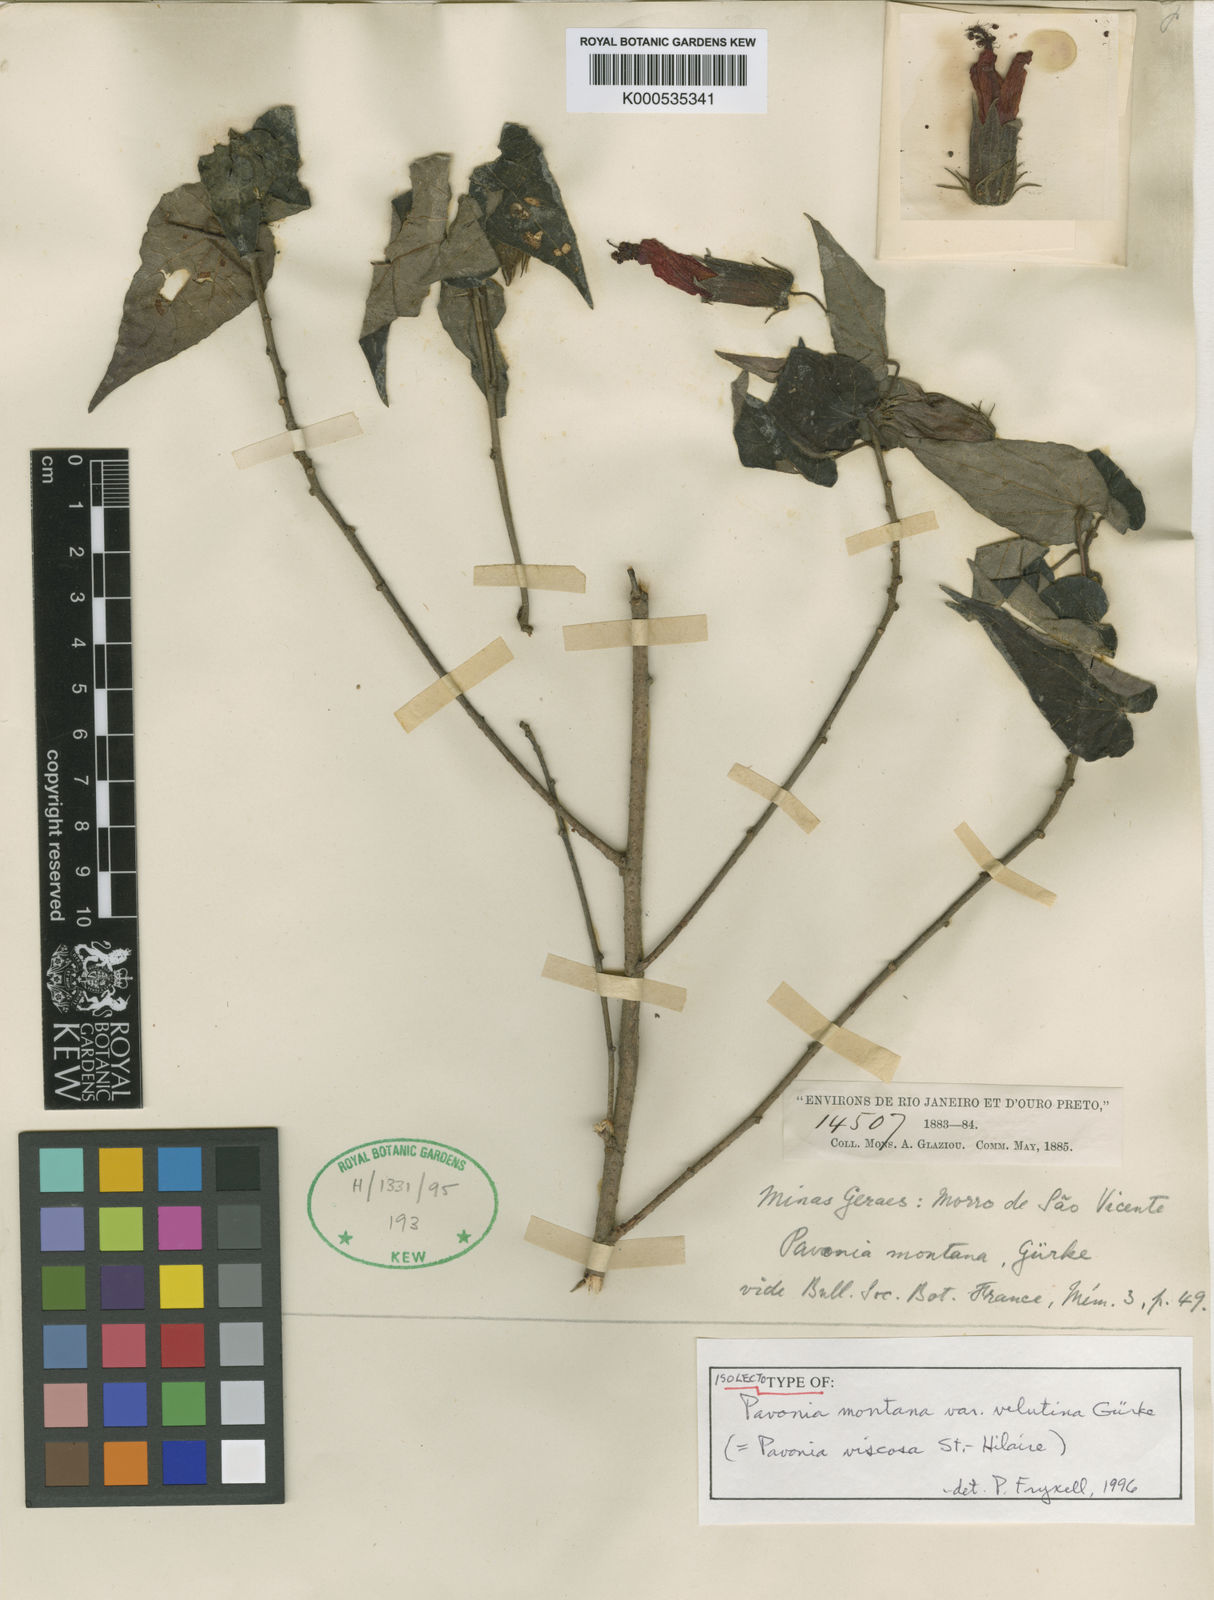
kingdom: Plantae
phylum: Tracheophyta
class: Magnoliopsida
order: Malvales
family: Malvaceae
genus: Pavonia
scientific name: Pavonia
